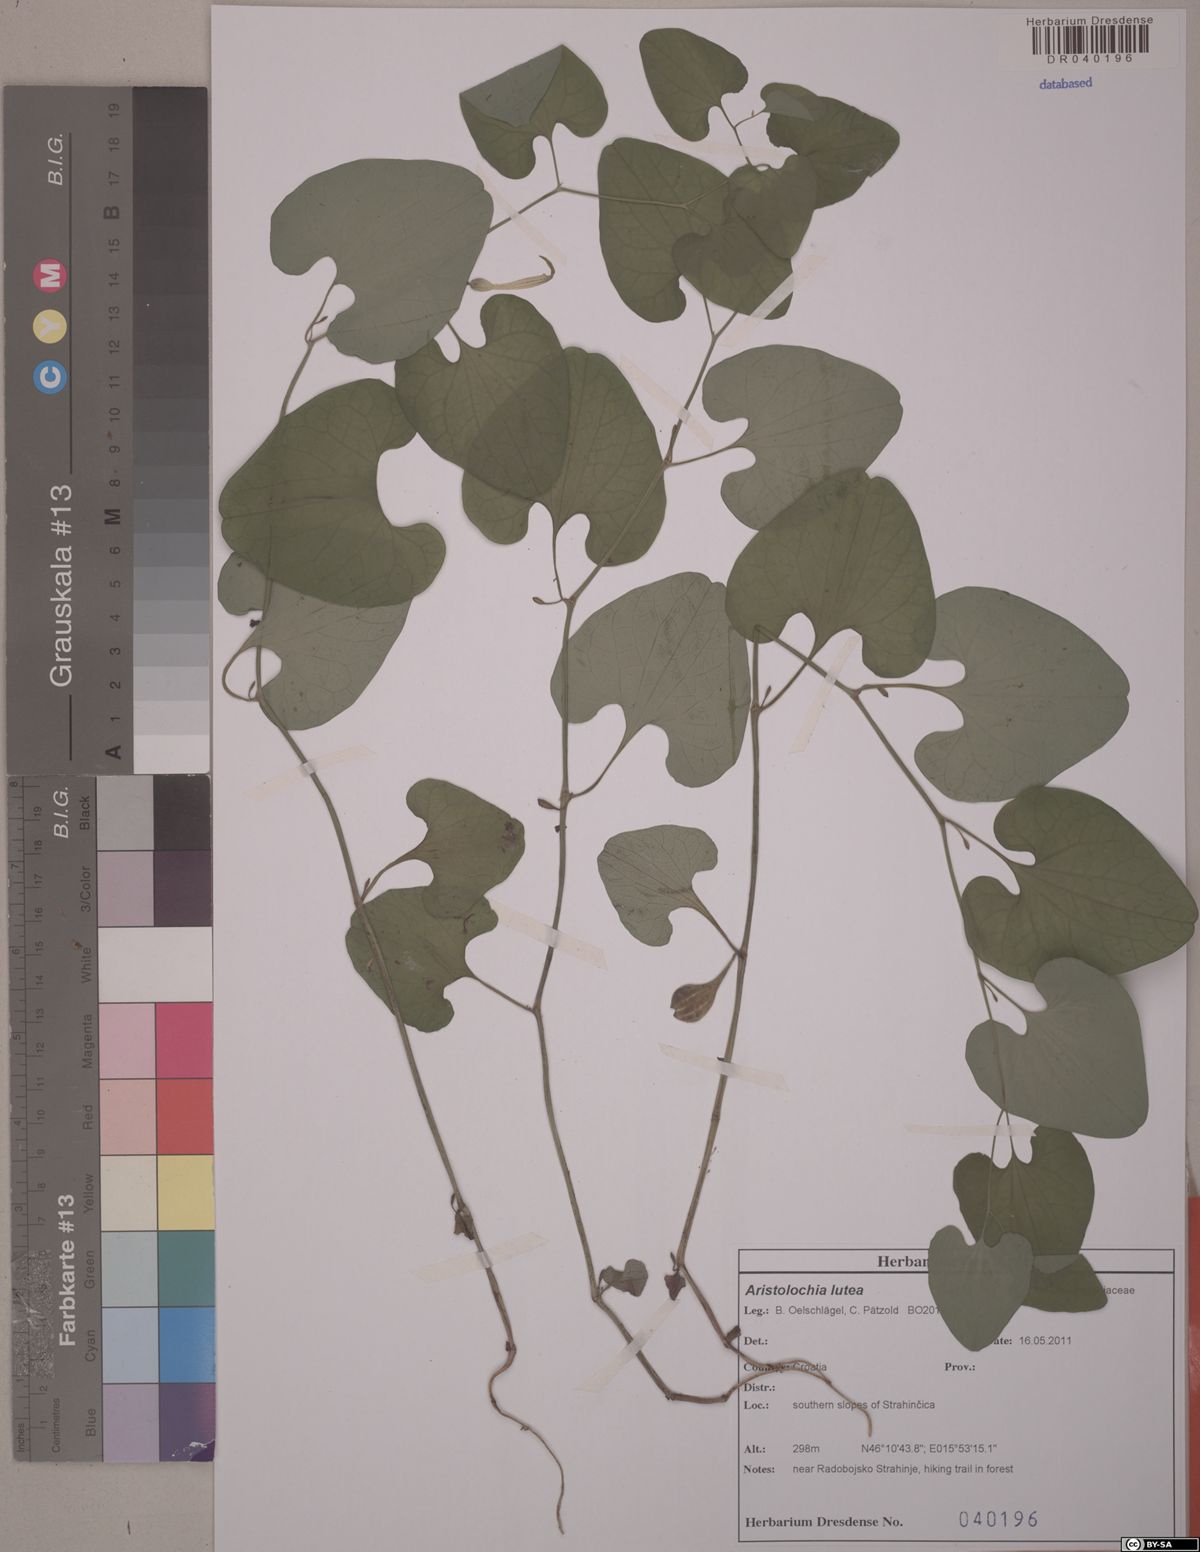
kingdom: Plantae
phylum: Tracheophyta
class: Magnoliopsida
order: Piperales
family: Aristolochiaceae
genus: Aristolochia
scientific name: Aristolochia lutea
